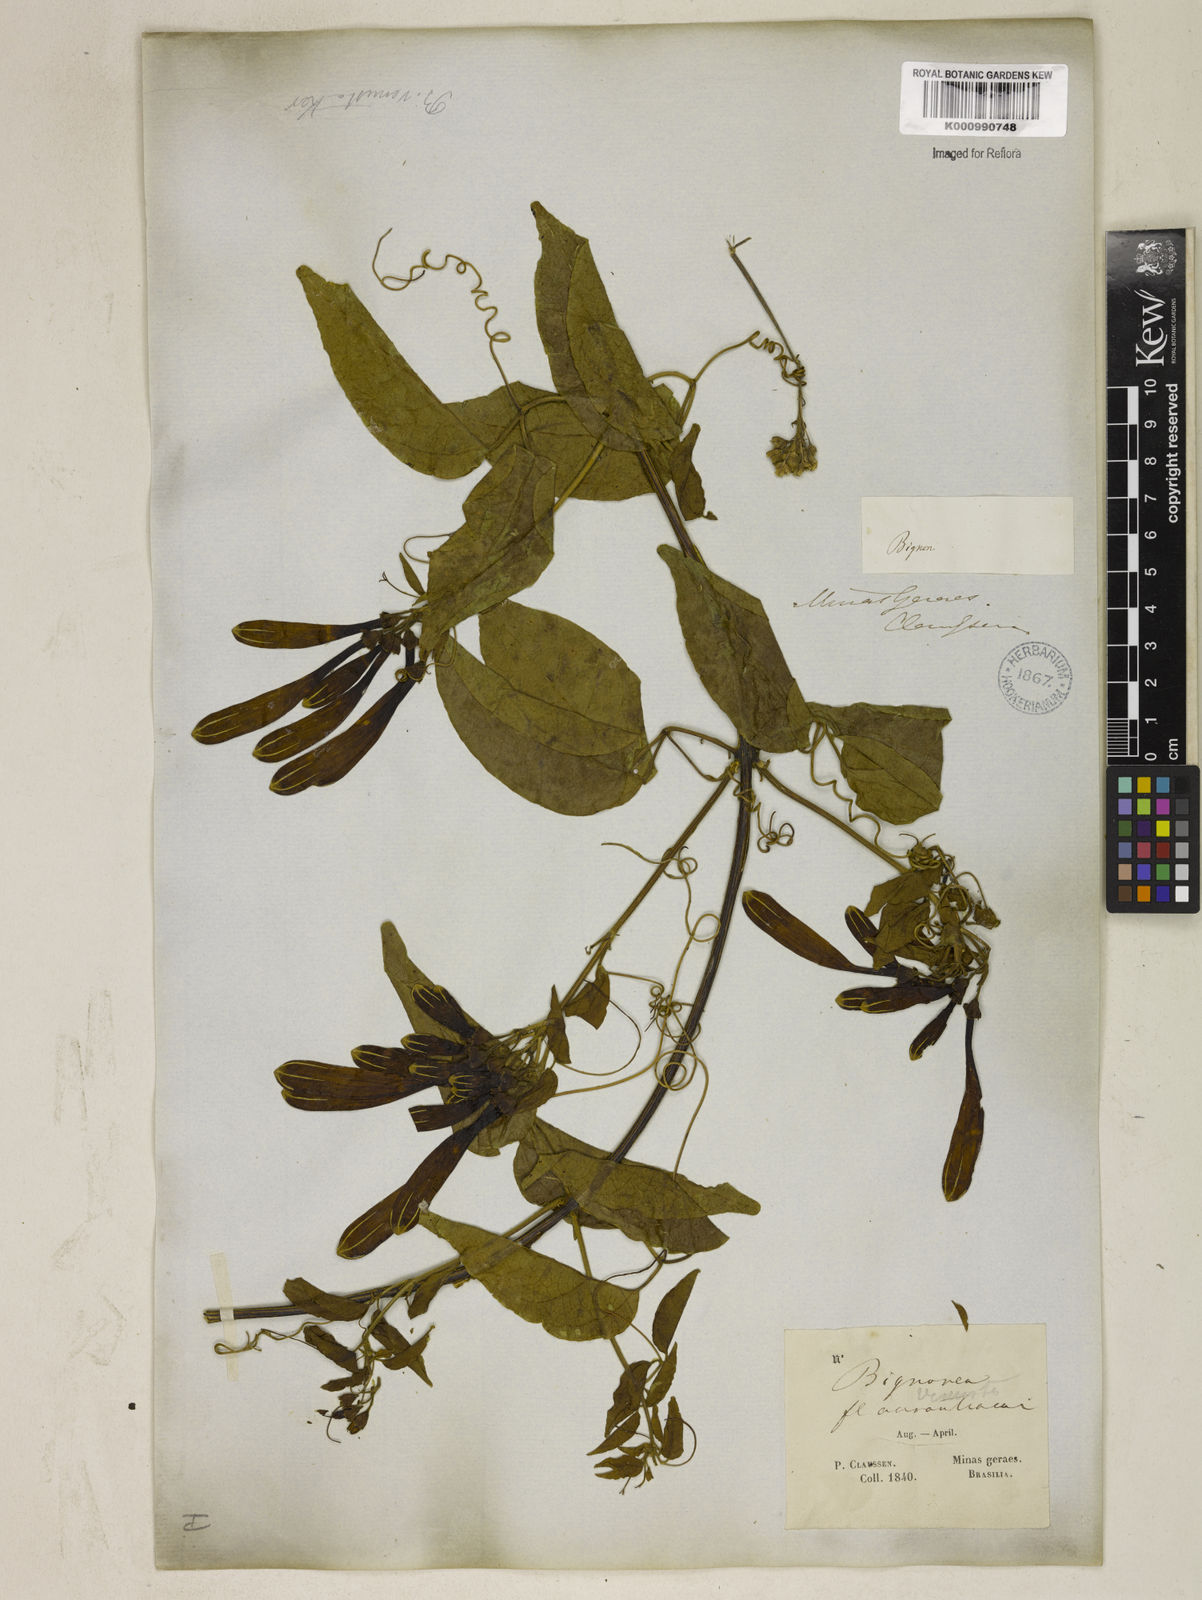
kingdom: Plantae
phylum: Tracheophyta
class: Magnoliopsida
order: Lamiales
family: Bignoniaceae
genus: Pyrostegia
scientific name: Pyrostegia venusta
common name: Flamevine
